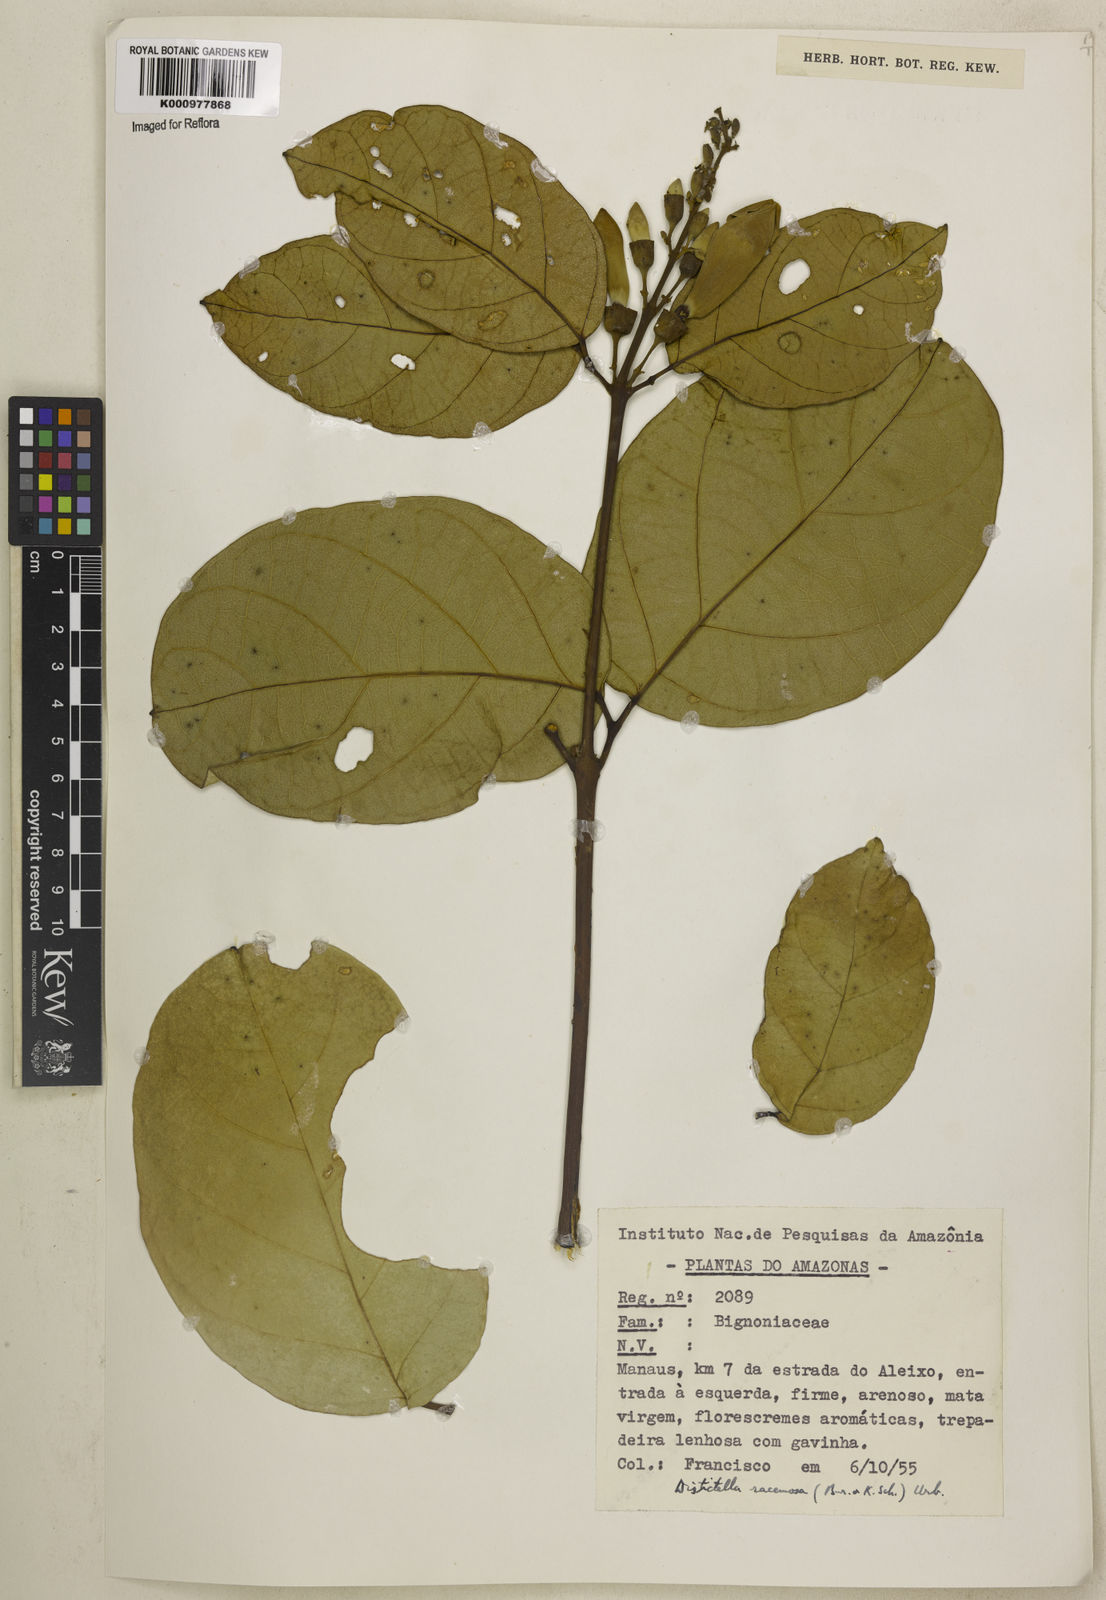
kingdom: Plantae
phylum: Tracheophyta
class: Magnoliopsida
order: Lamiales
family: Bignoniaceae
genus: Amphilophium
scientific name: Amphilophium racemosum
